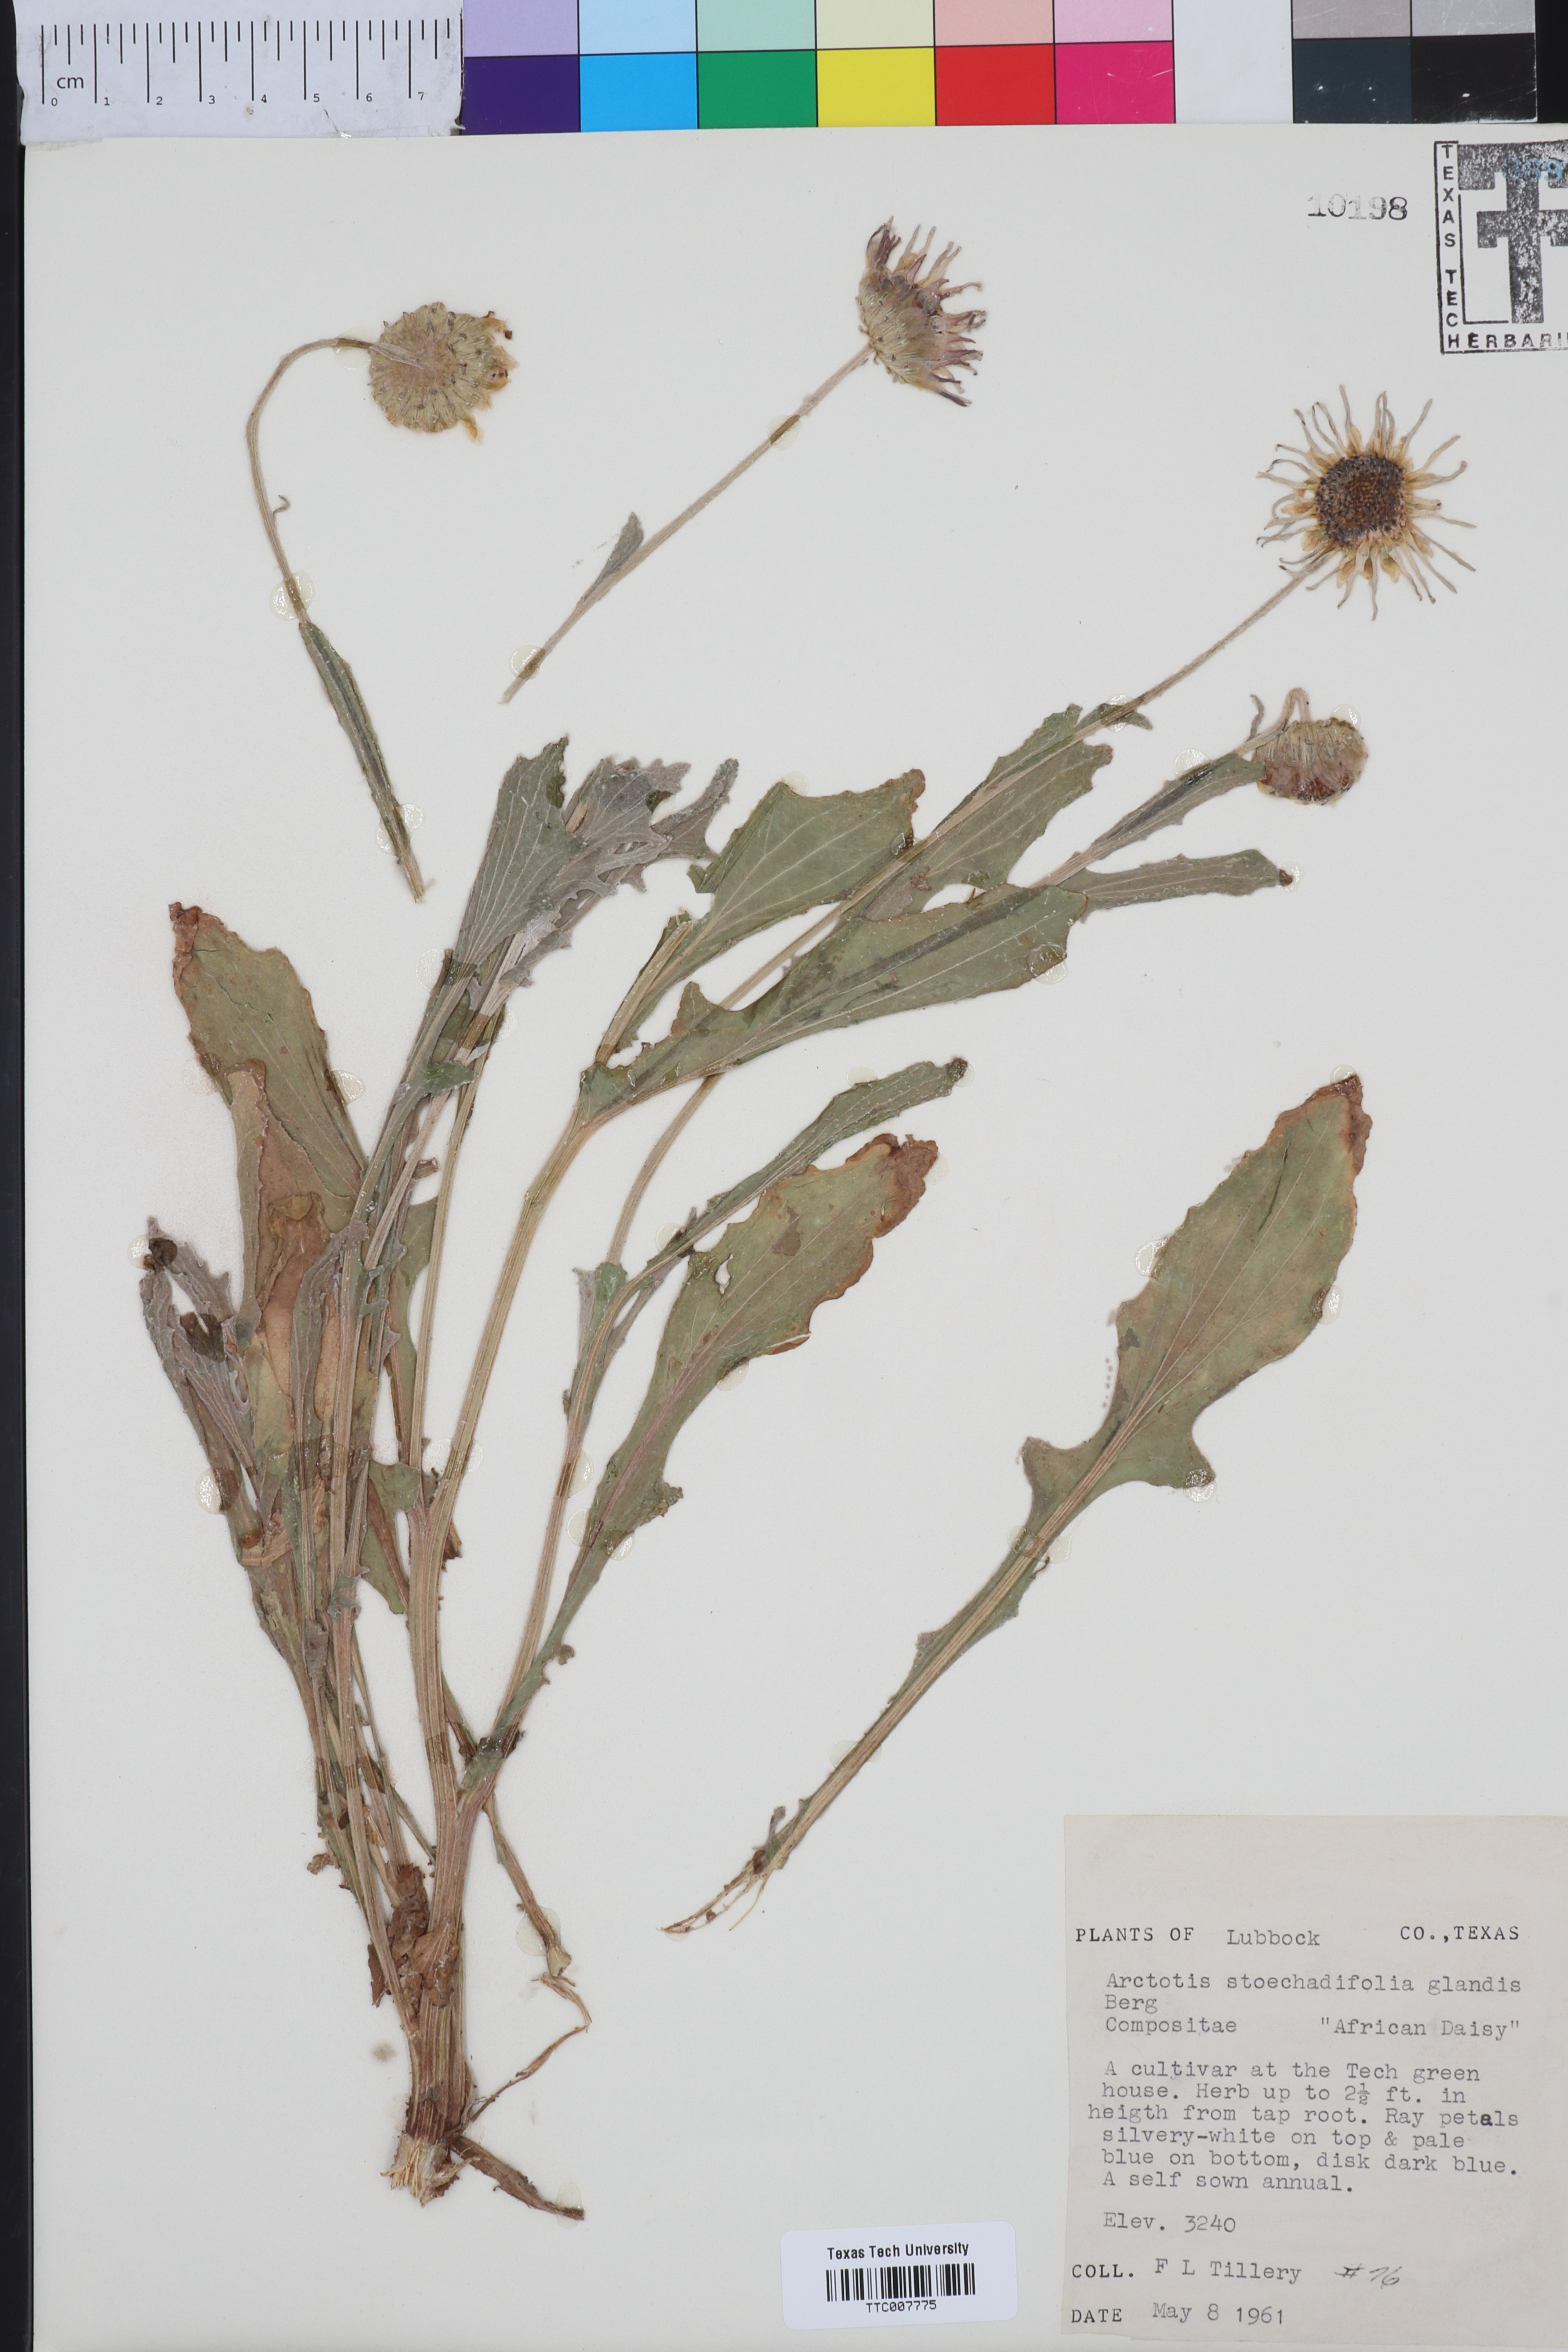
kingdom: Plantae
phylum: Tracheophyta
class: Magnoliopsida
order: Asterales
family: Asteraceae
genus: Arctotis
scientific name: Arctotis stoechadifolia
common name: African daisy
